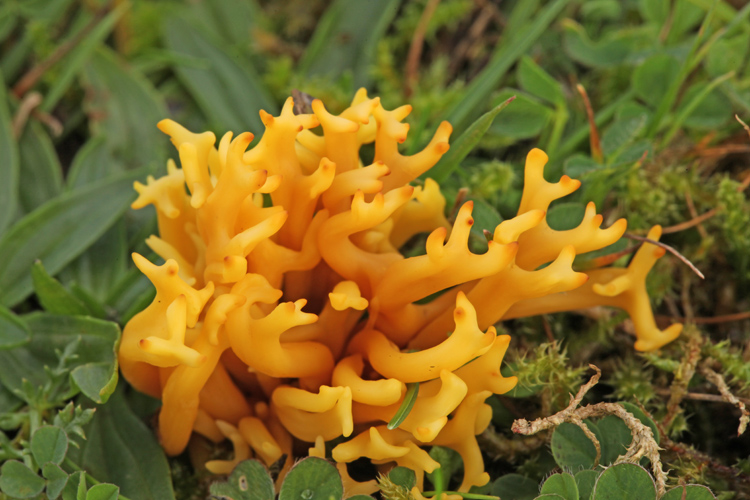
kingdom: Fungi
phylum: Basidiomycota
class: Agaricomycetes
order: Agaricales
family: Clavariaceae
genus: Clavulinopsis
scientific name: Clavulinopsis corniculata
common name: eng-køllesvamp
